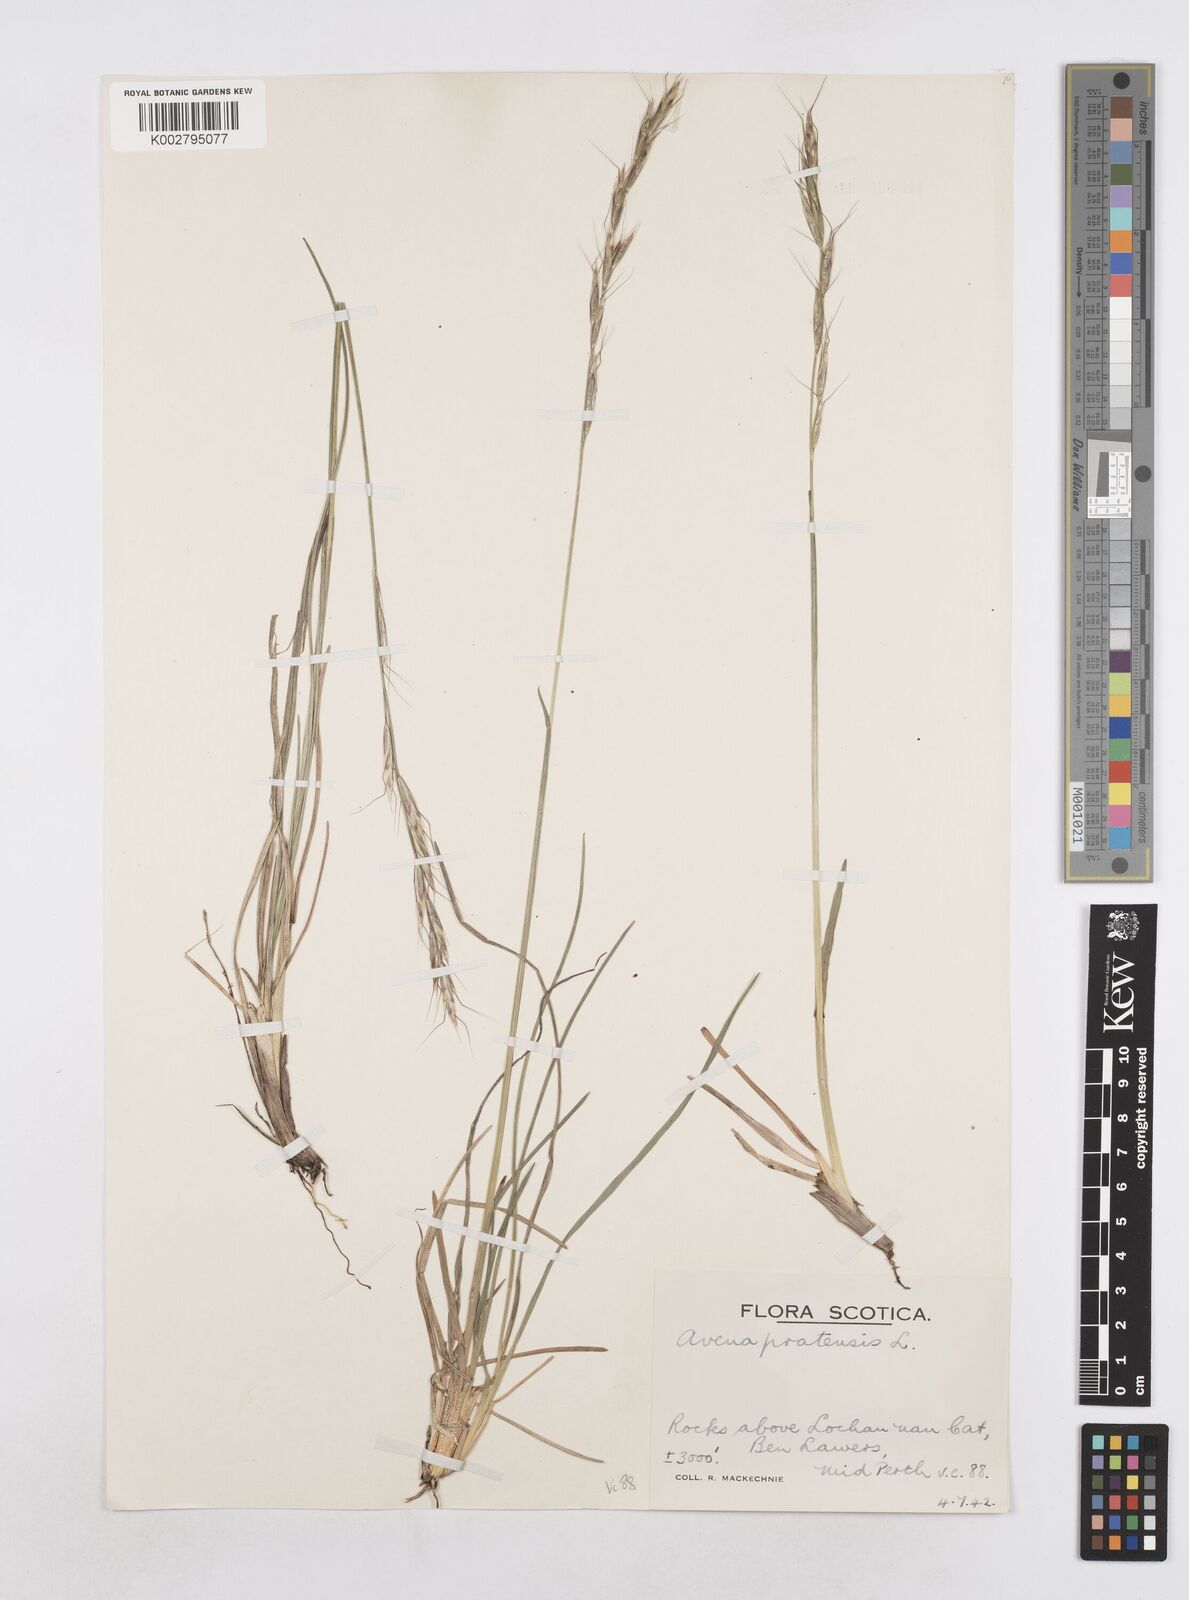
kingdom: Plantae
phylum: Tracheophyta
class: Liliopsida
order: Poales
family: Poaceae
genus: Helictotrichon
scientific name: Helictotrichon
